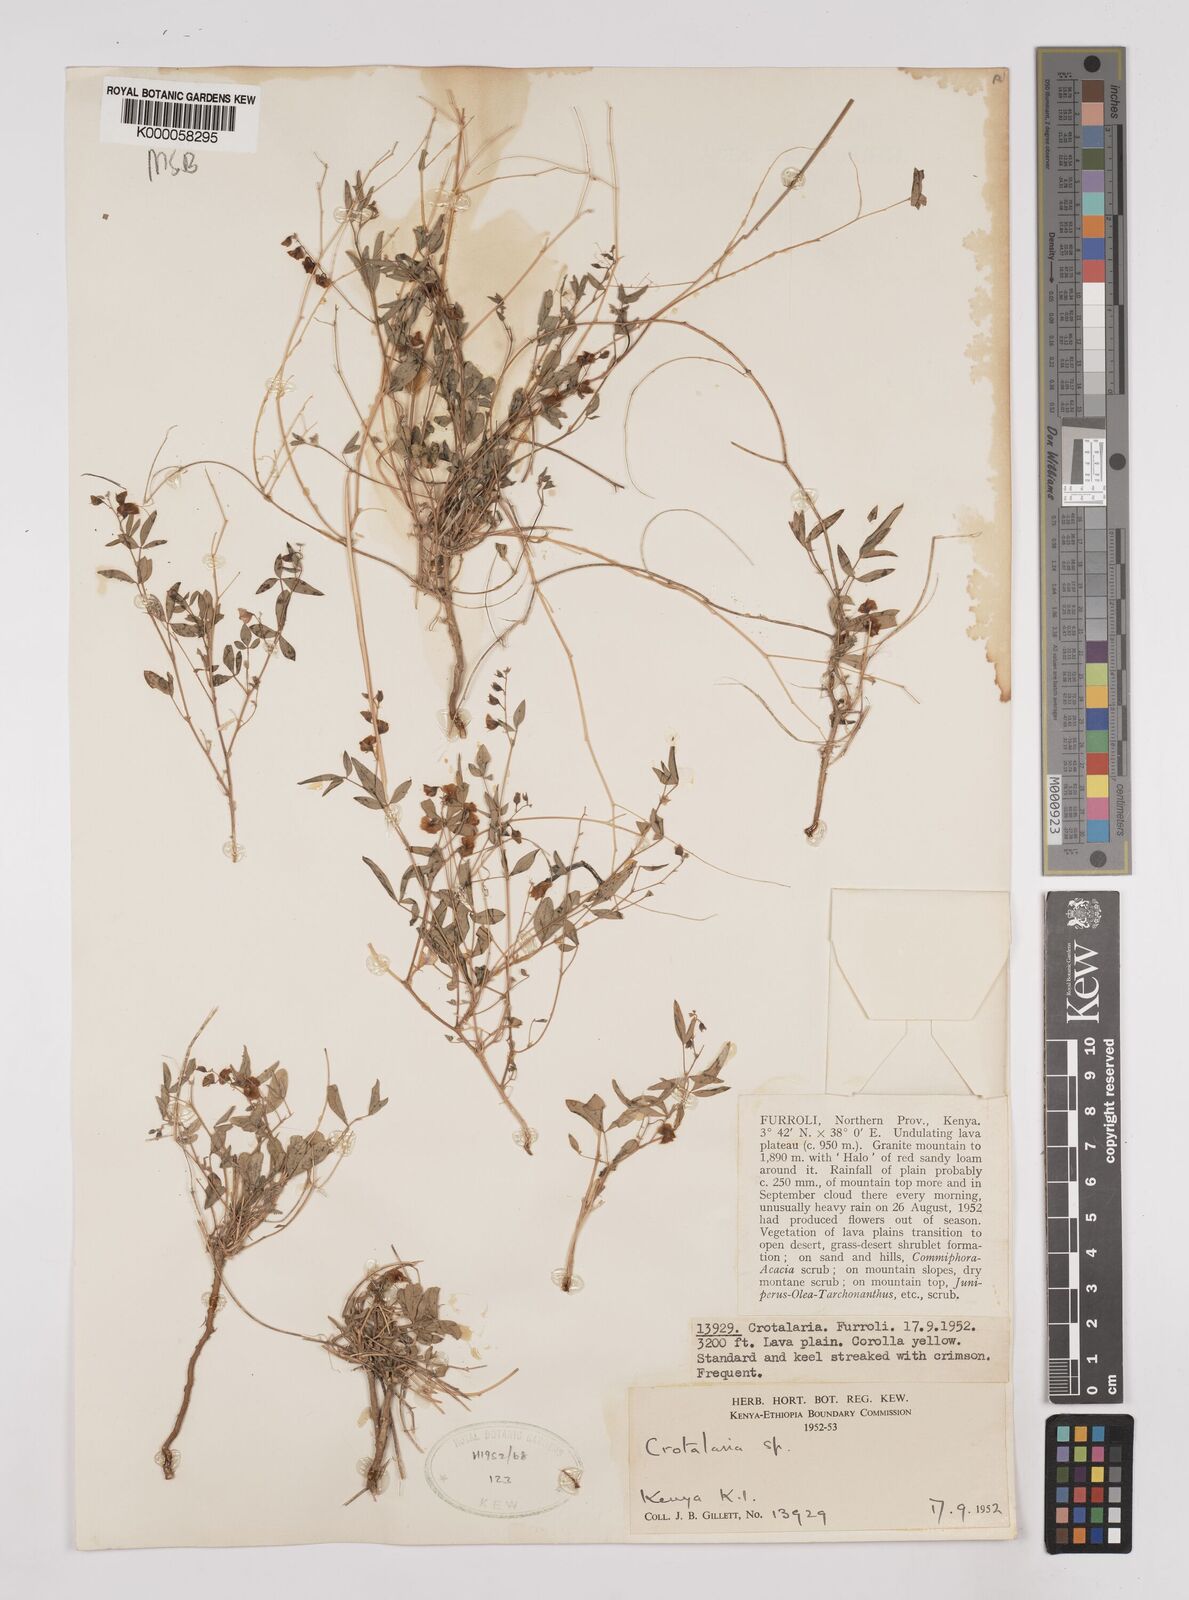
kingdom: Plantae
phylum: Tracheophyta
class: Magnoliopsida
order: Fabales
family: Fabaceae
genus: Crotalaria
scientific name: Crotalaria leptocarpa
